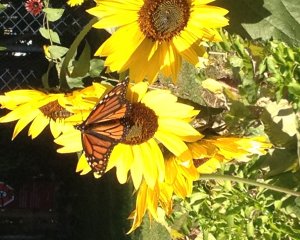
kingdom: Animalia
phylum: Arthropoda
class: Insecta
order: Lepidoptera
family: Nymphalidae
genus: Danaus
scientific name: Danaus plexippus
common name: Monarch
